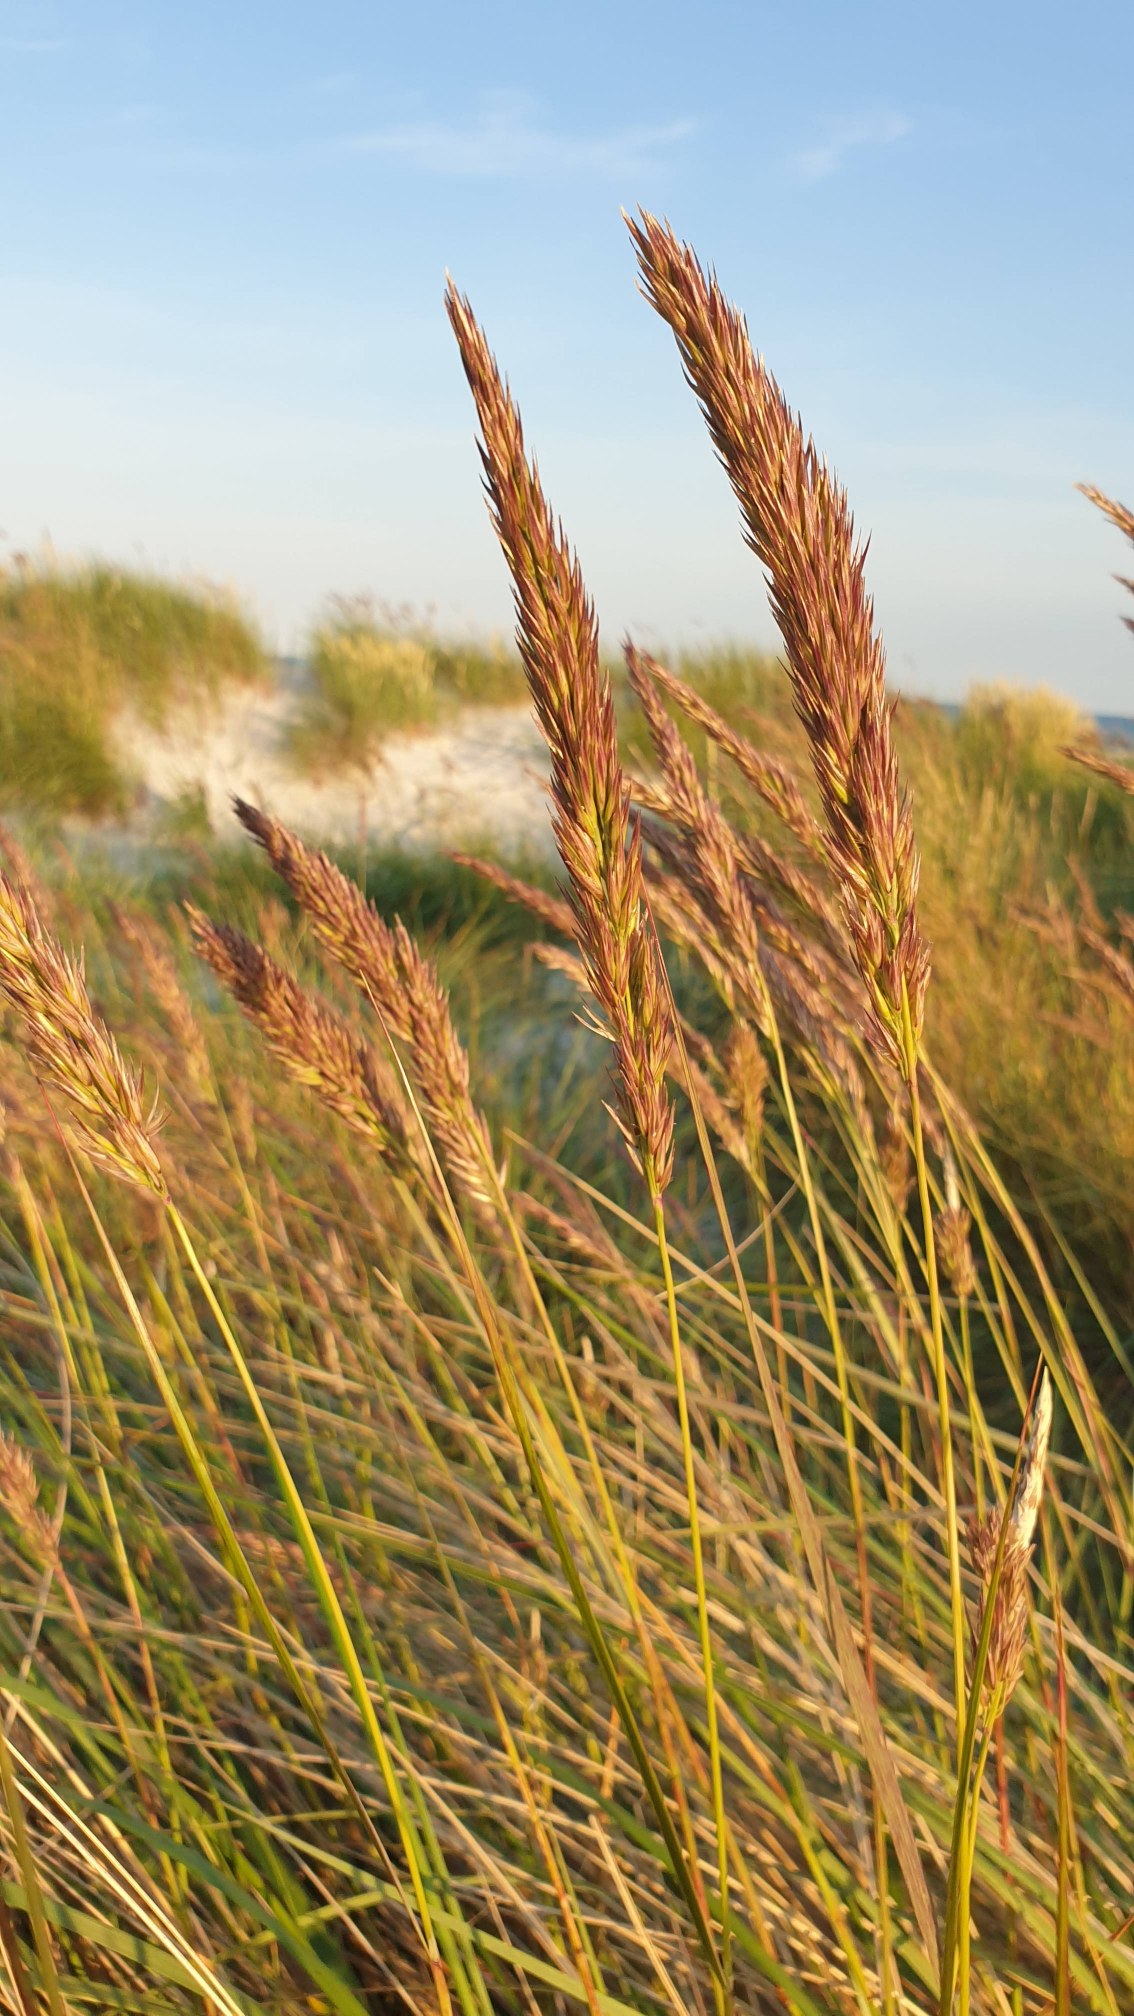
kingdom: Plantae
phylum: Tracheophyta
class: Liliopsida
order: Poales
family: Poaceae
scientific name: Poaceae
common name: Østersøhjælme
